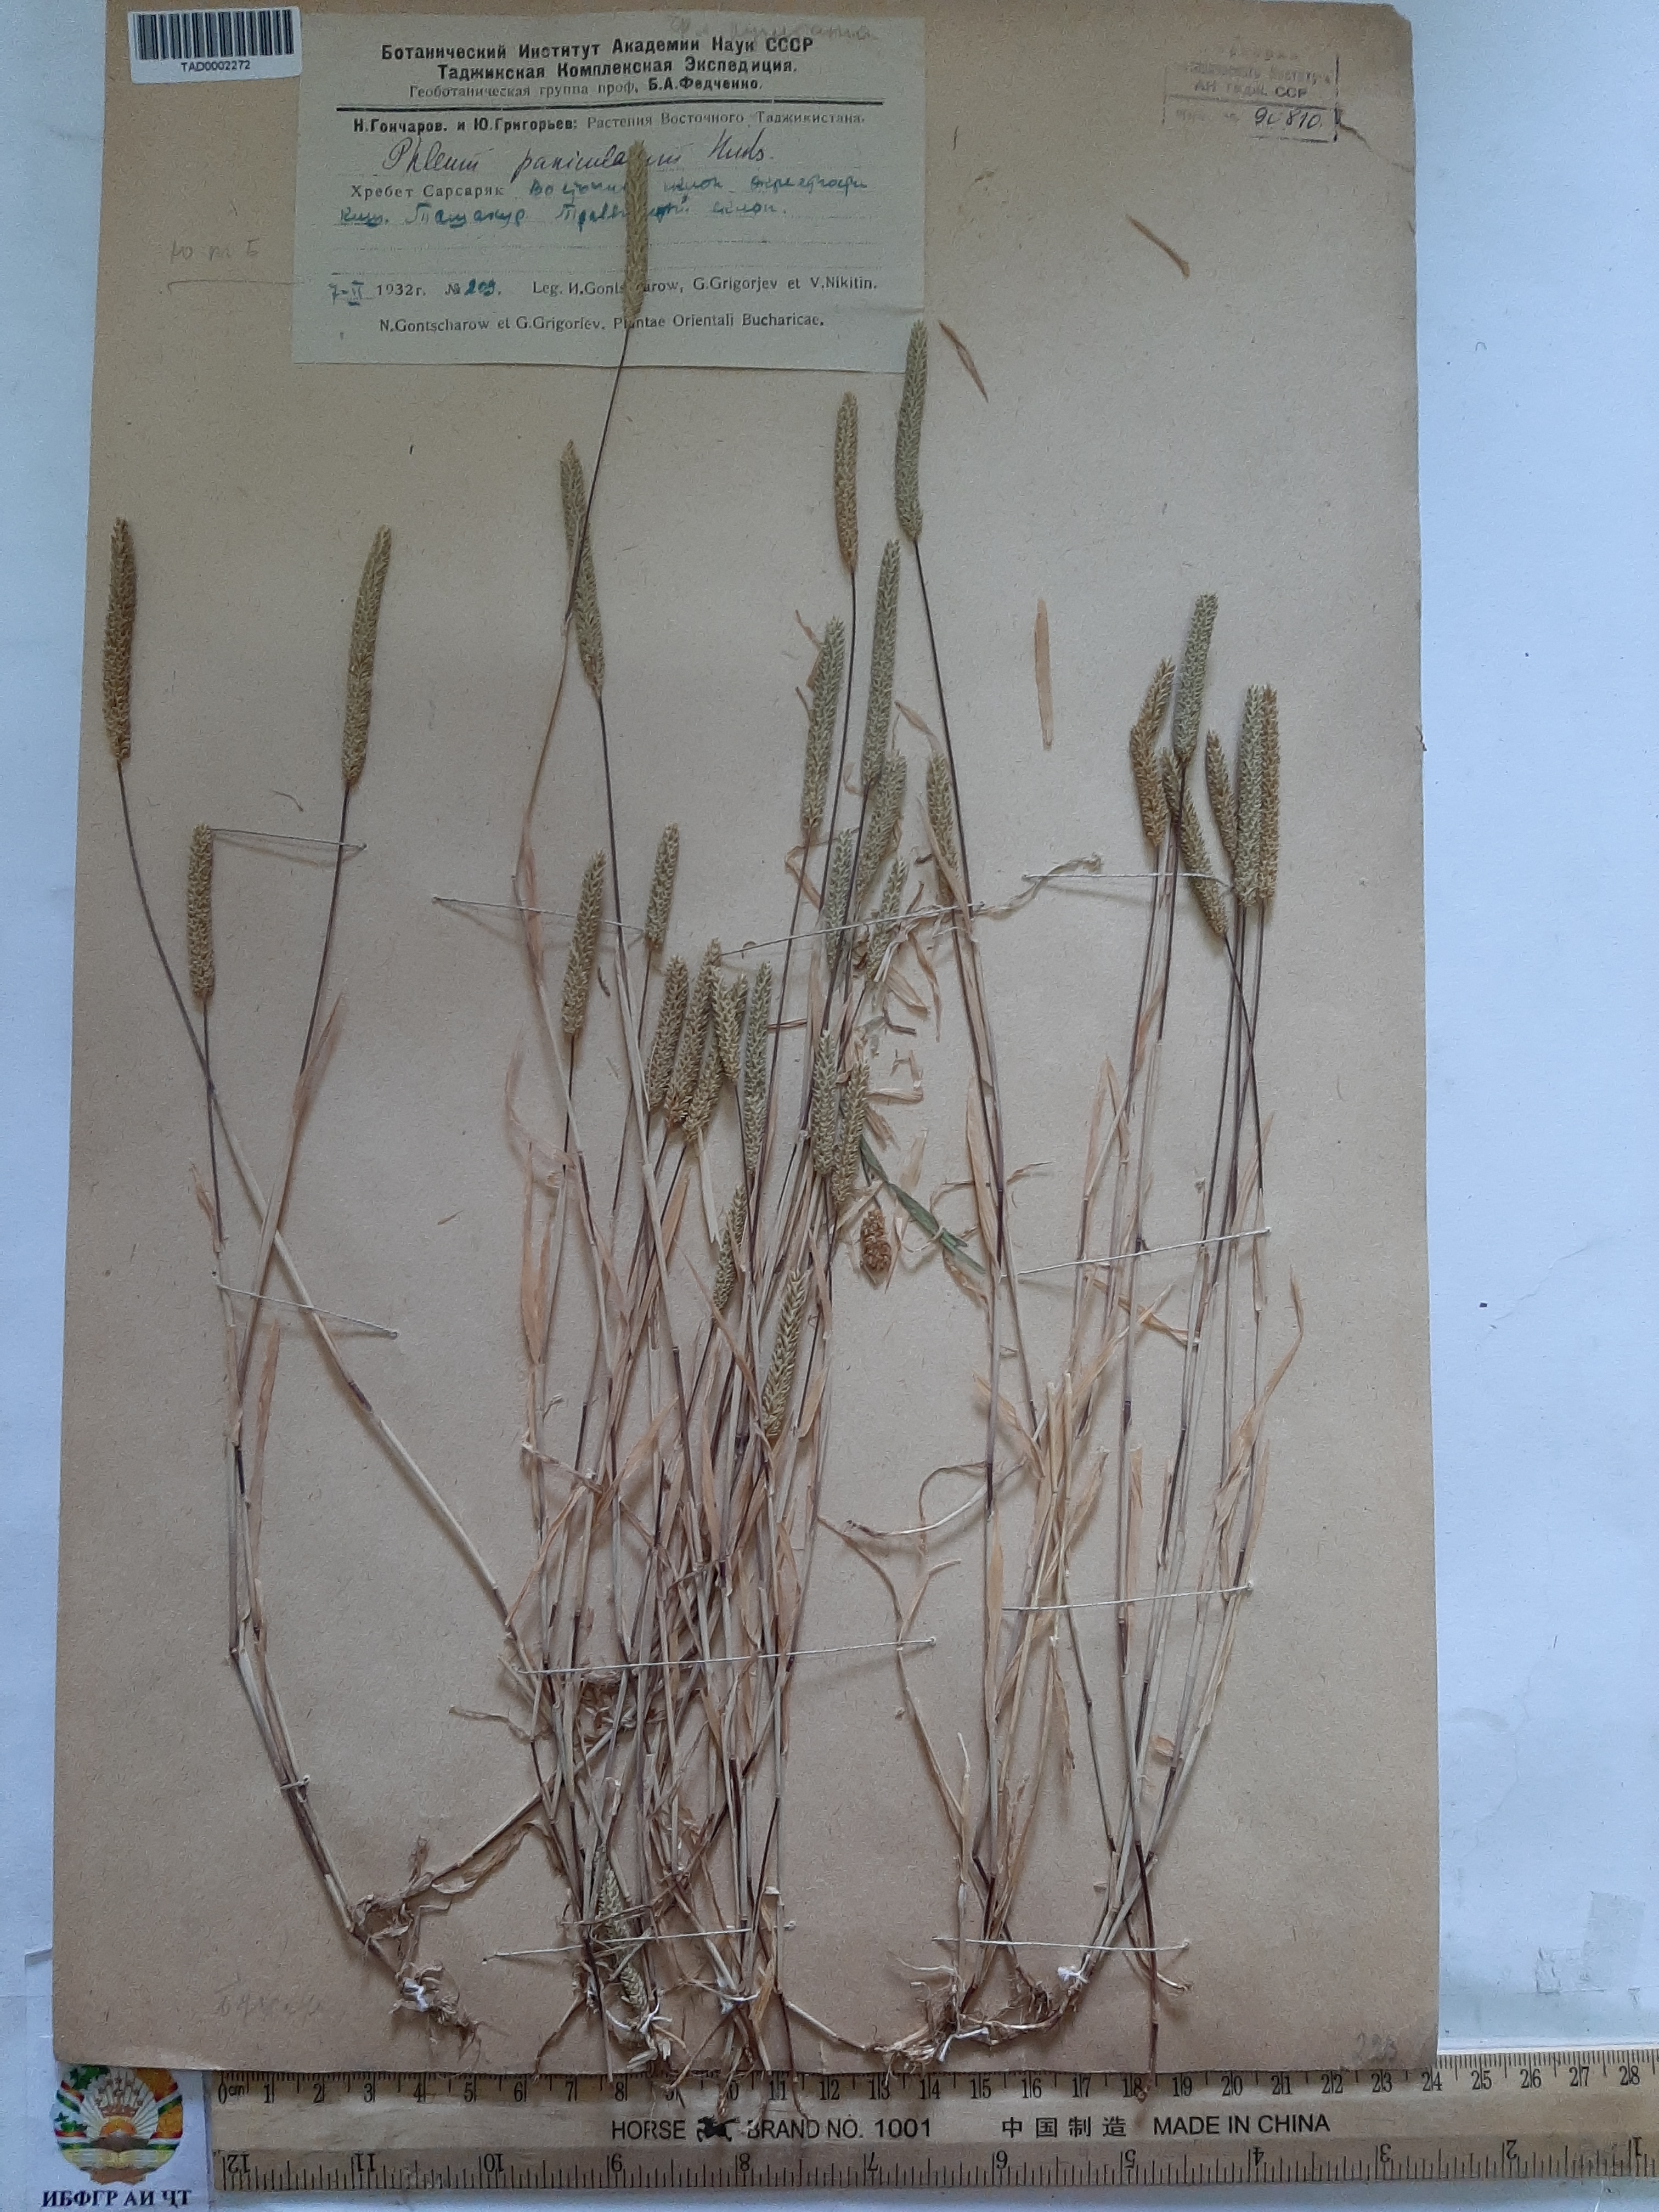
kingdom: Plantae
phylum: Tracheophyta
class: Liliopsida
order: Poales
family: Poaceae
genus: Phleum
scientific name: Phleum paniculatum
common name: British timothy
